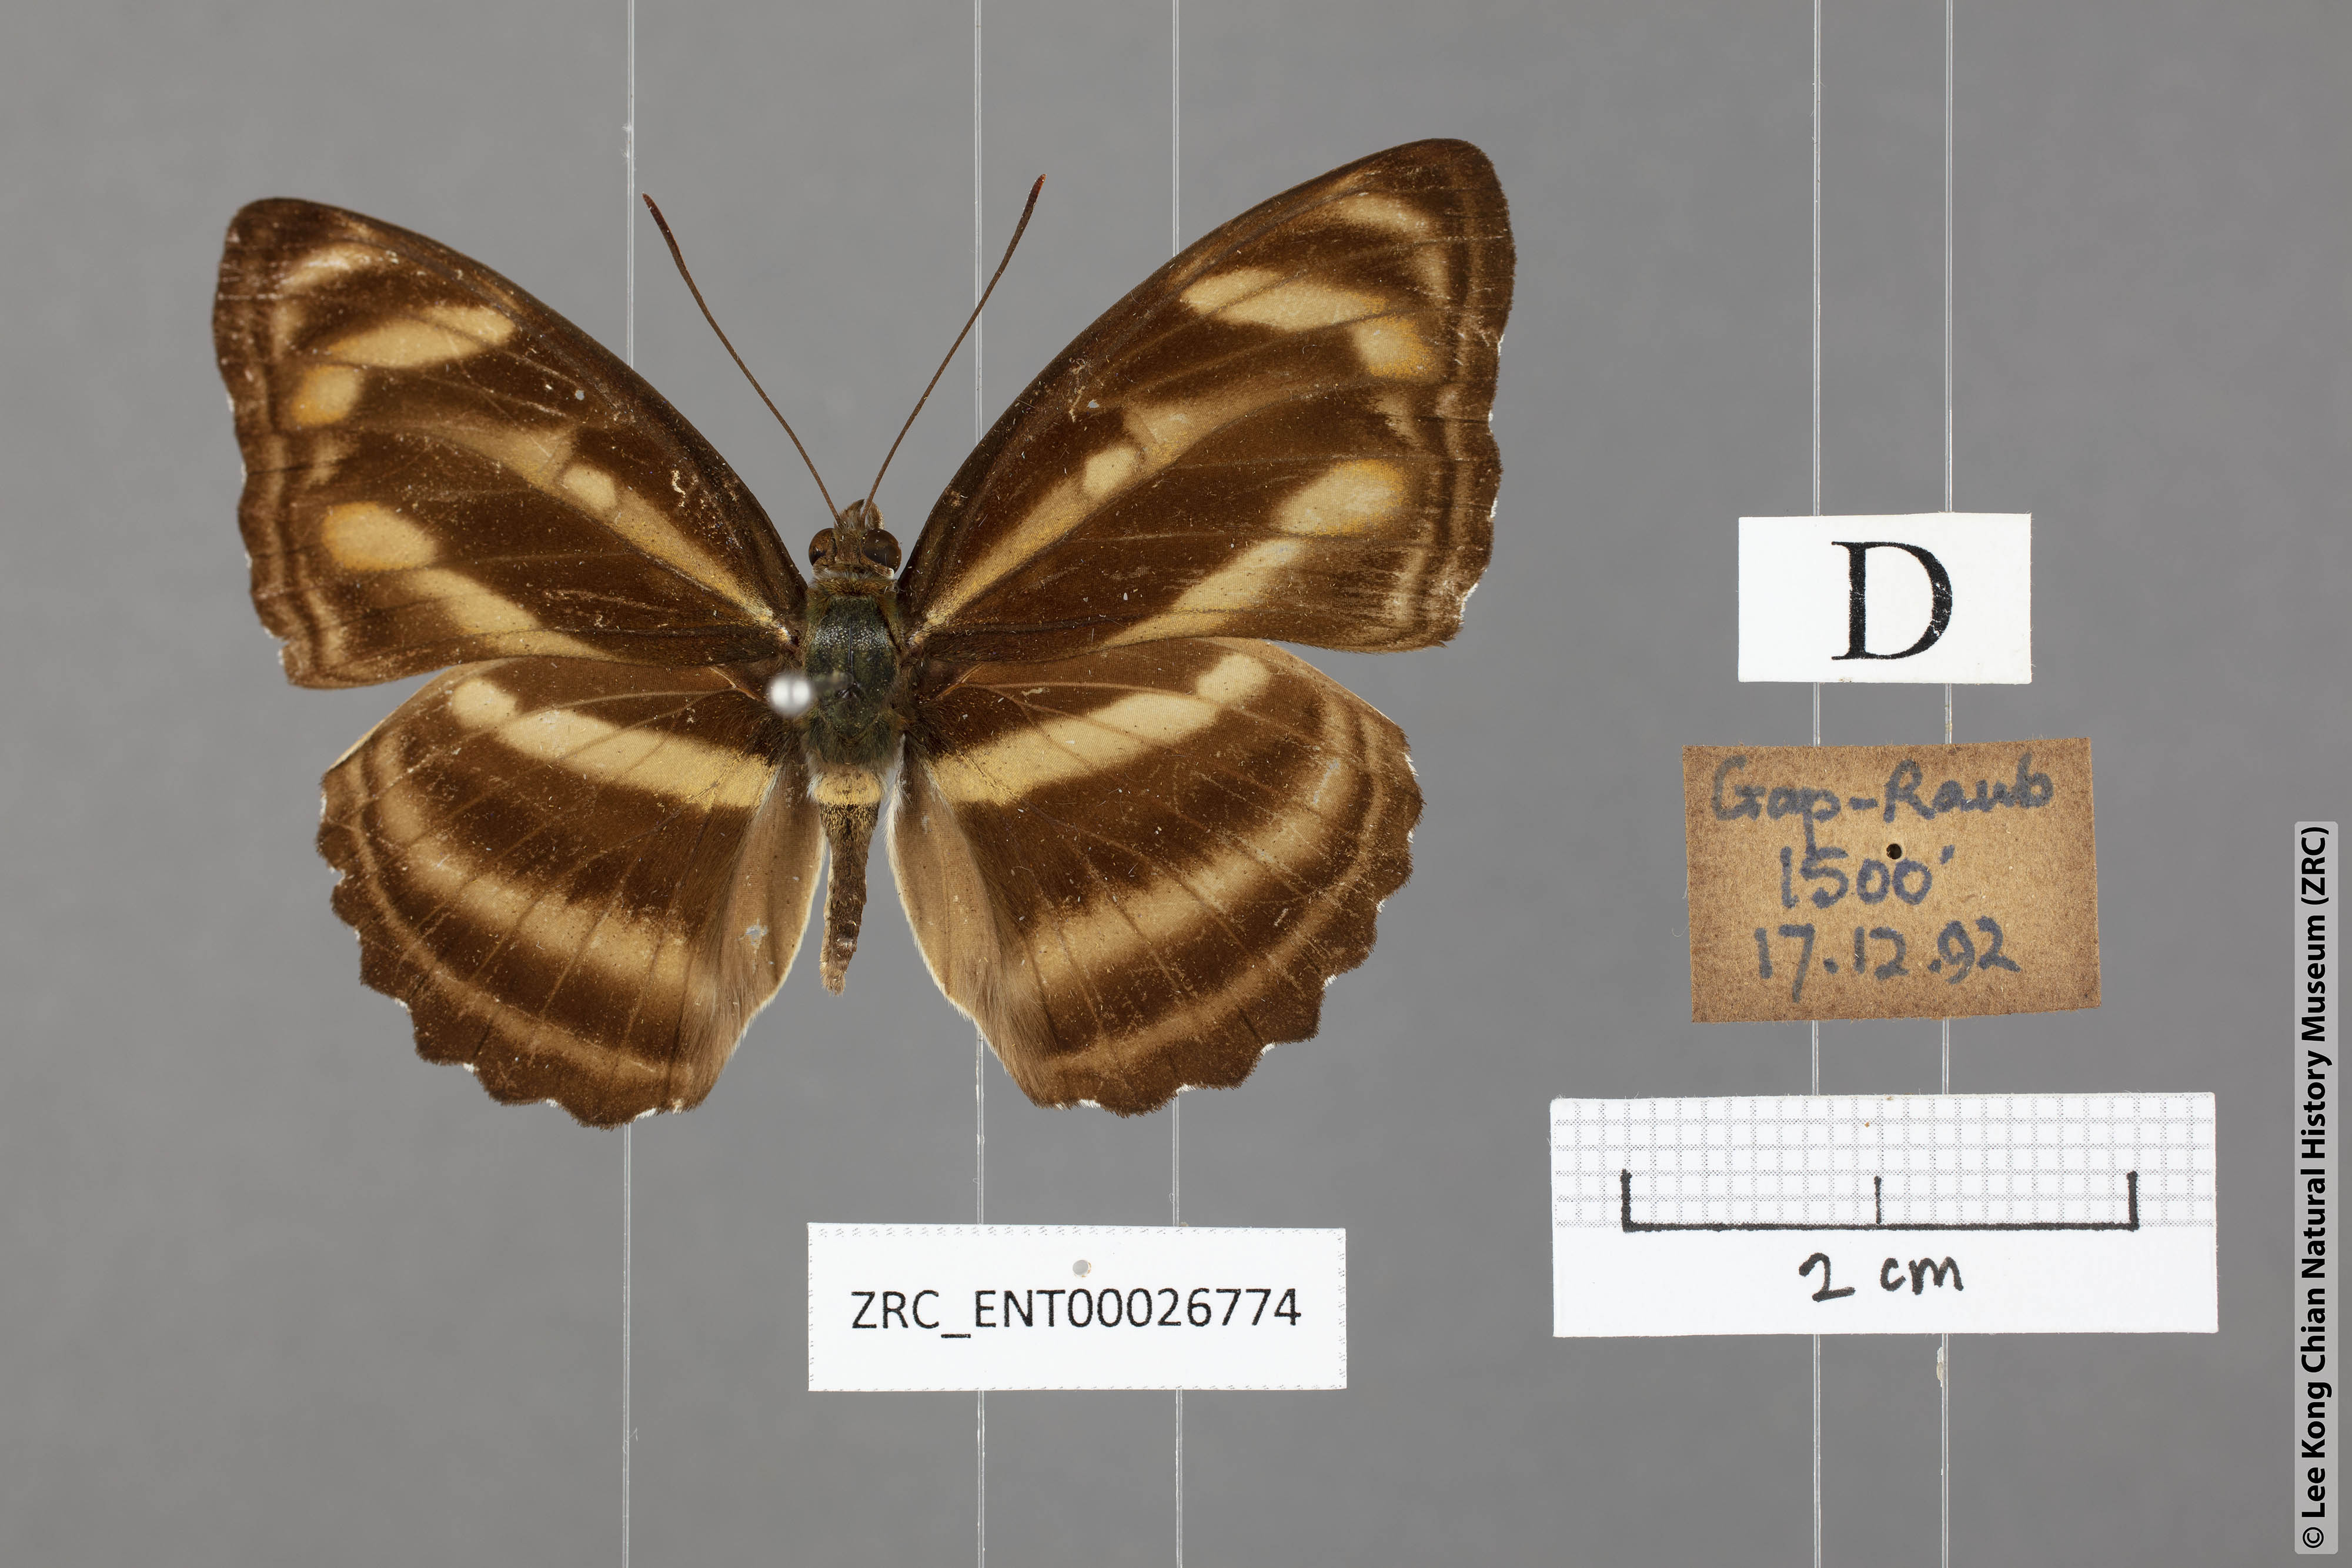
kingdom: Animalia
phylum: Arthropoda
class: Insecta
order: Lepidoptera
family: Nymphalidae
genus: Parathyma
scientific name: Parathyma nefte
